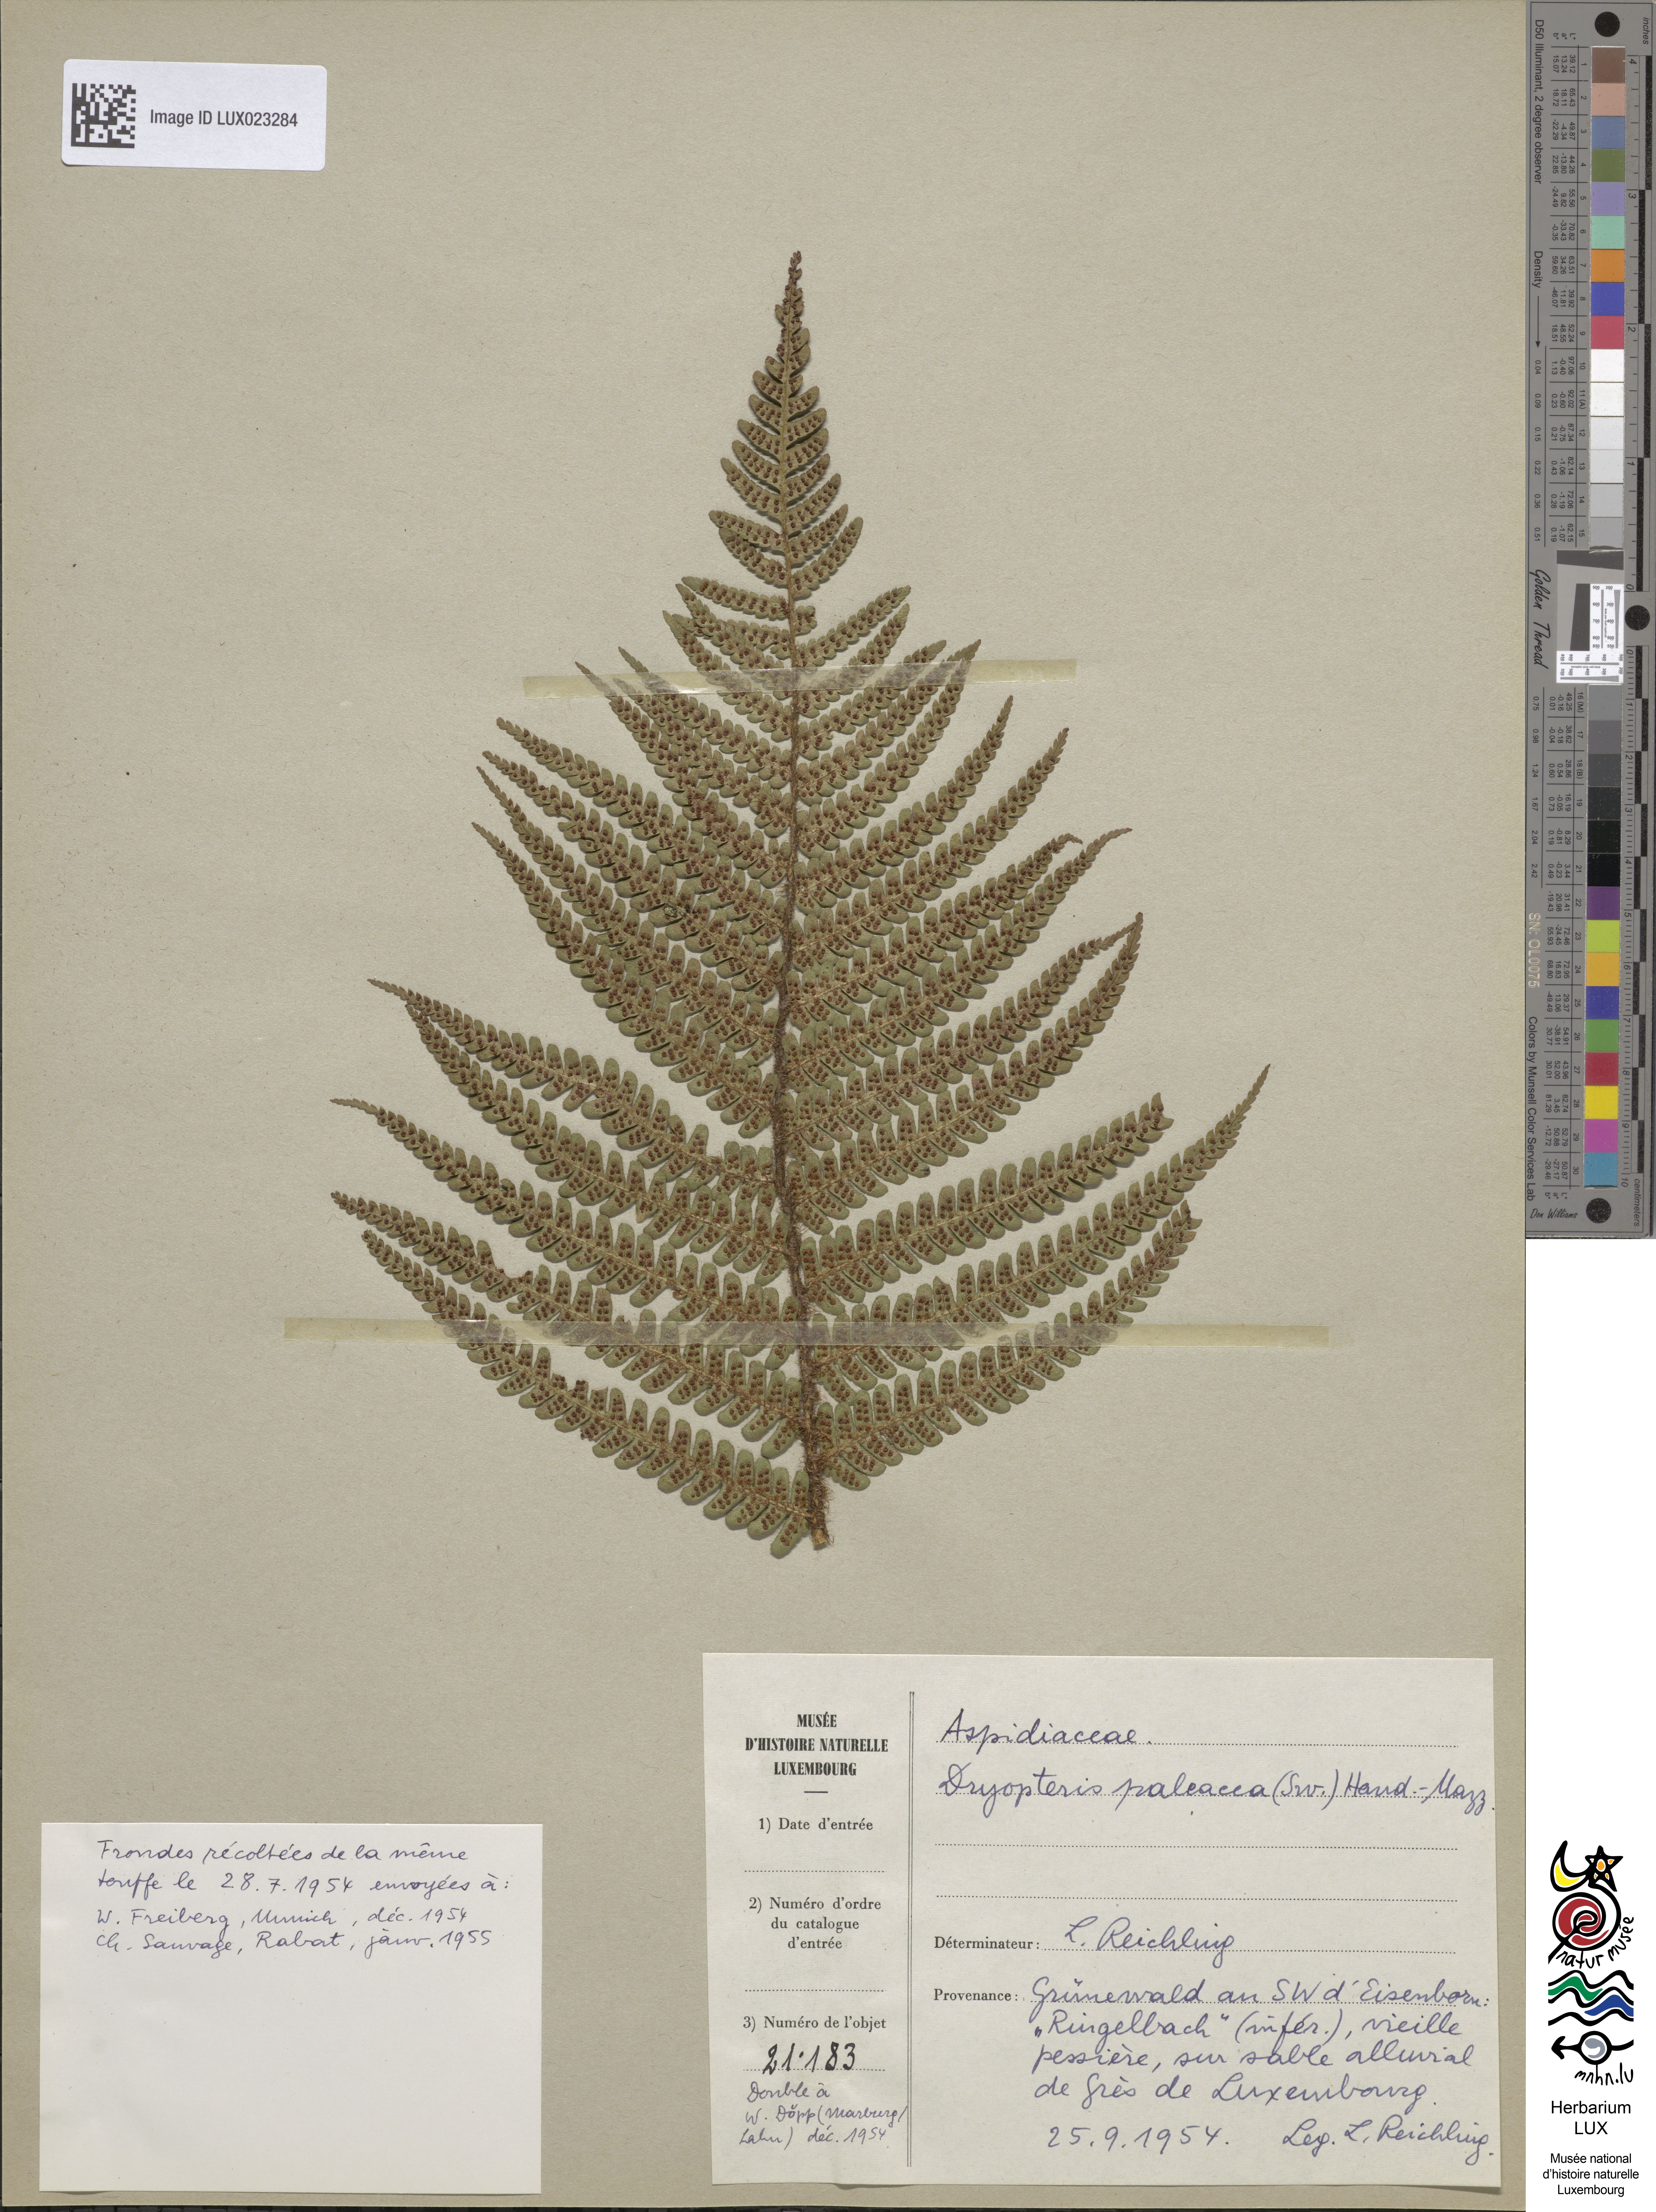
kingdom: Plantae
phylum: Tracheophyta
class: Polypodiopsida
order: Polypodiales
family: Dryopteridaceae
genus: Dryopteris
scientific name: Dryopteris borreri
